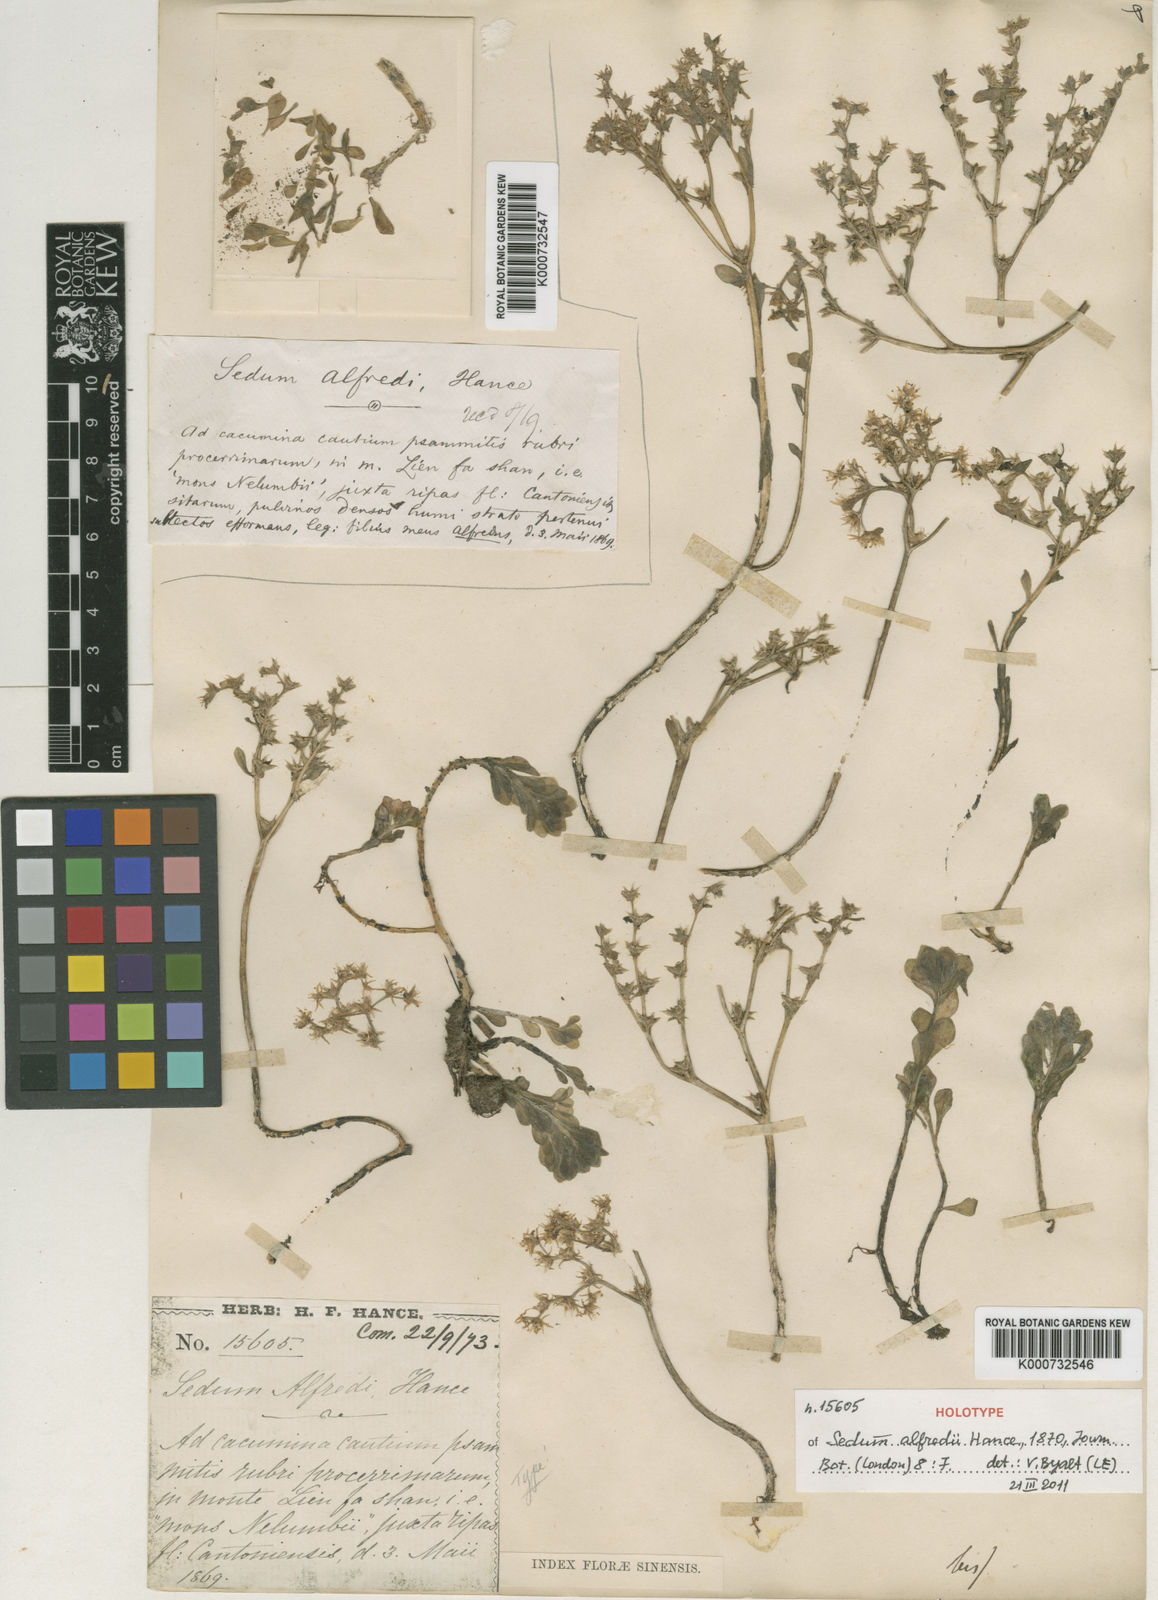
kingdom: Plantae
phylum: Tracheophyta
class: Magnoliopsida
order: Saxifragales
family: Crassulaceae
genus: Sedum
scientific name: Sedum alfredi
